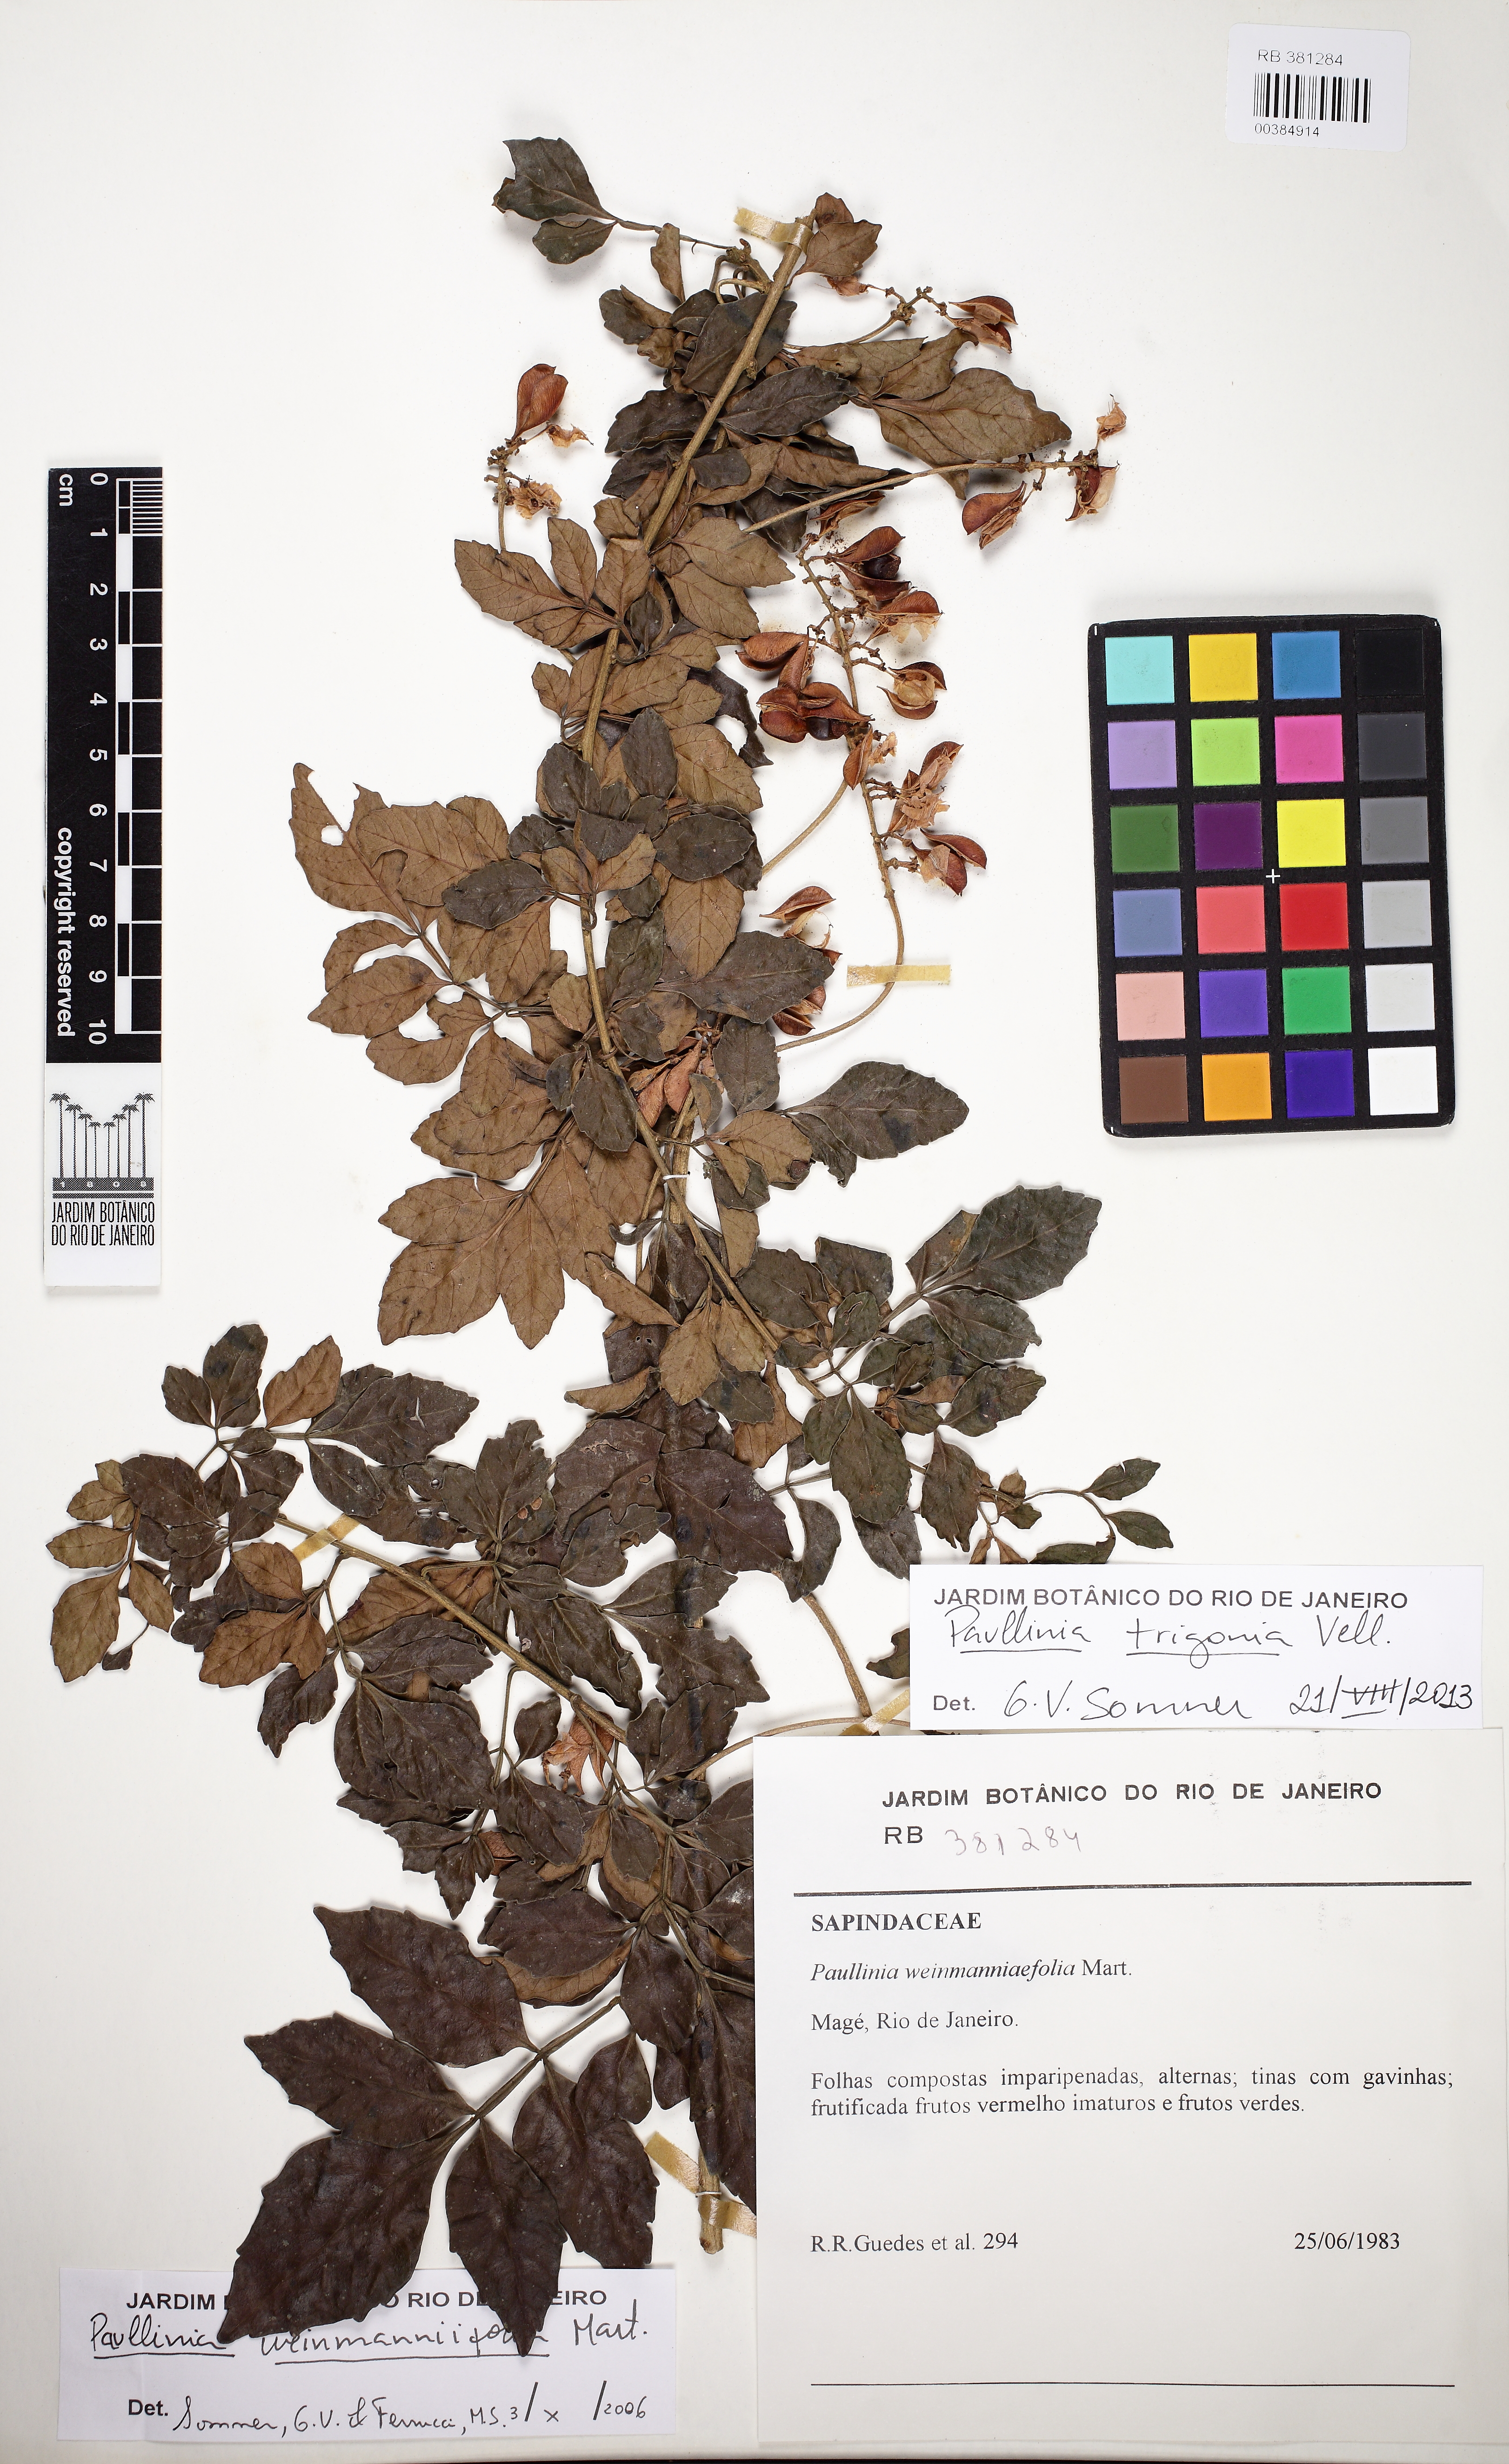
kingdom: Plantae
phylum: Tracheophyta
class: Magnoliopsida
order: Sapindales
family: Sapindaceae
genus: Paullinia
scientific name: Paullinia trigonia
